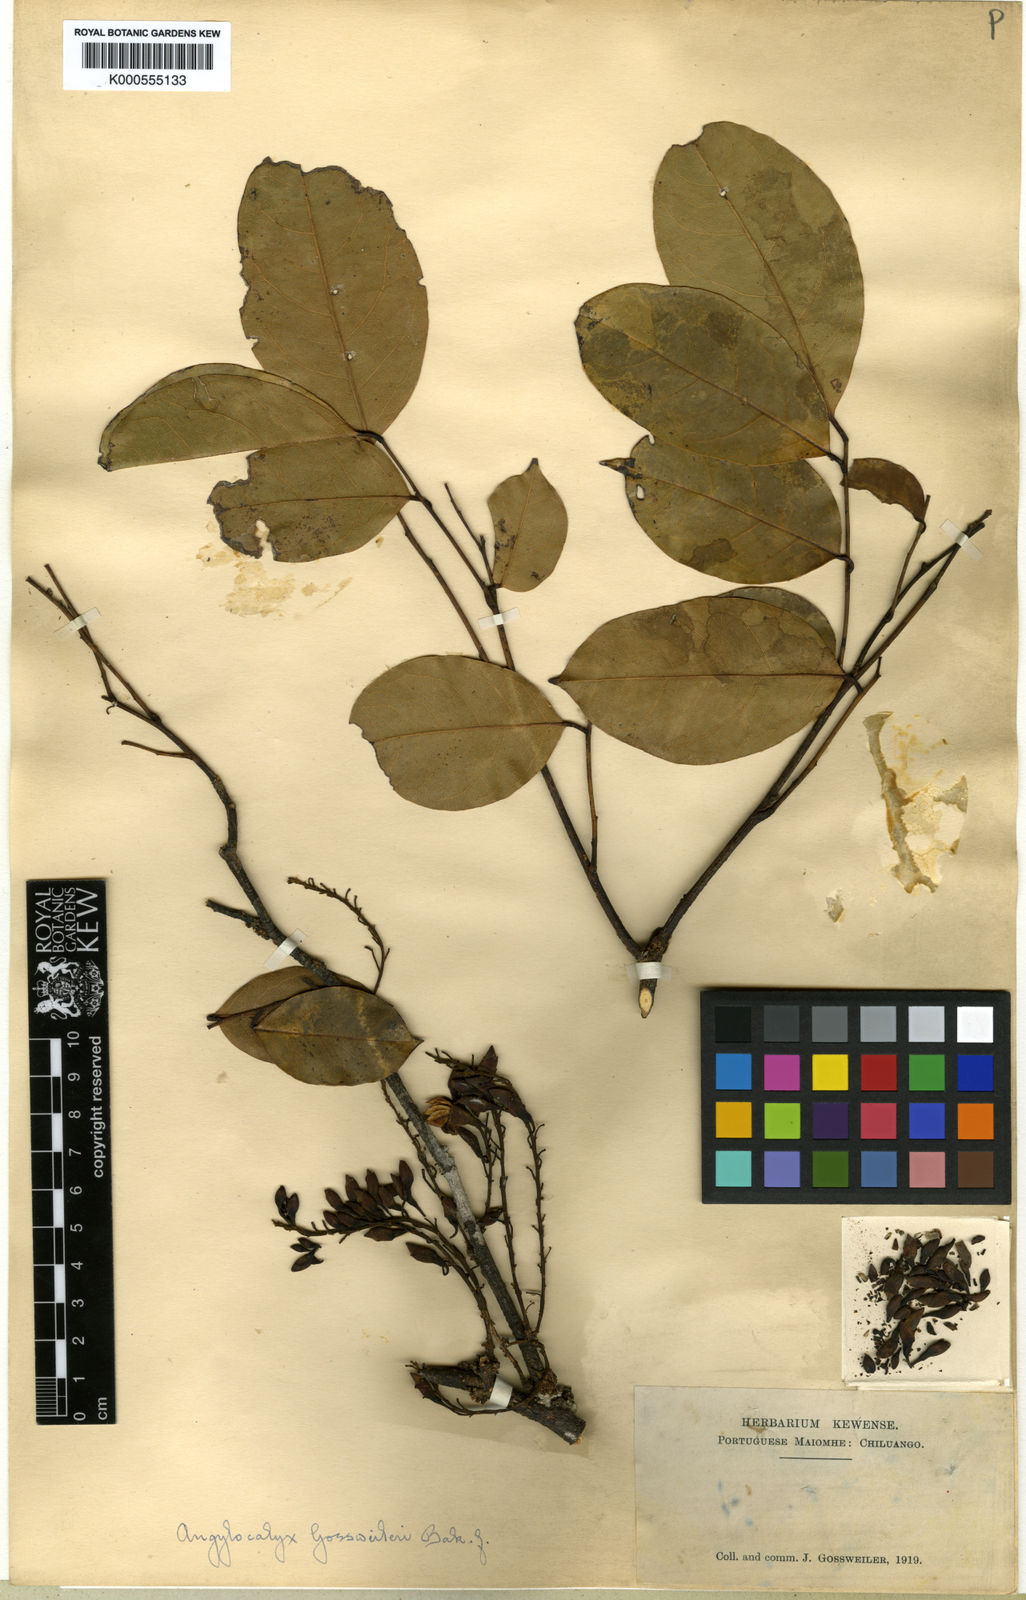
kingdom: Plantae
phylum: Tracheophyta
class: Magnoliopsida
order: Fabales
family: Fabaceae
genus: Angylocalyx
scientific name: Angylocalyx pynaertii
